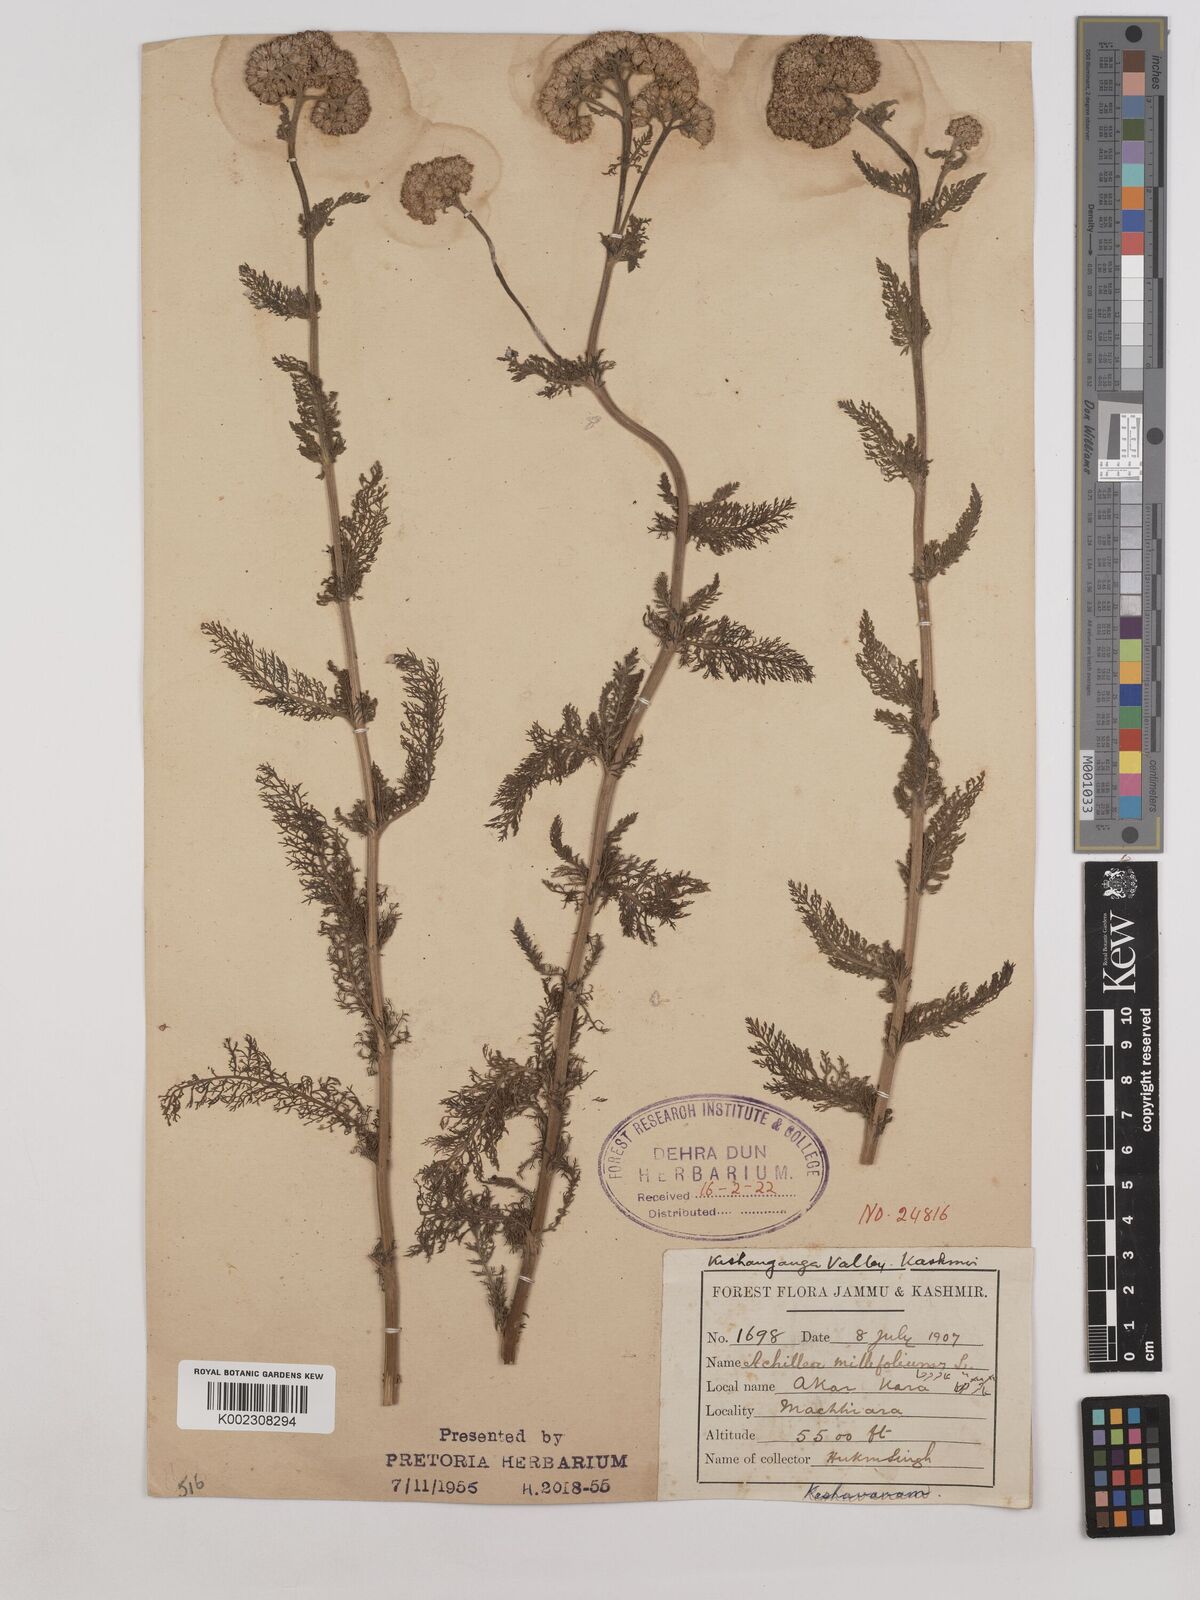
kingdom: Plantae
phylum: Tracheophyta
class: Magnoliopsida
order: Asterales
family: Asteraceae
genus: Achillea
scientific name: Achillea millefolium
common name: Yarrow
